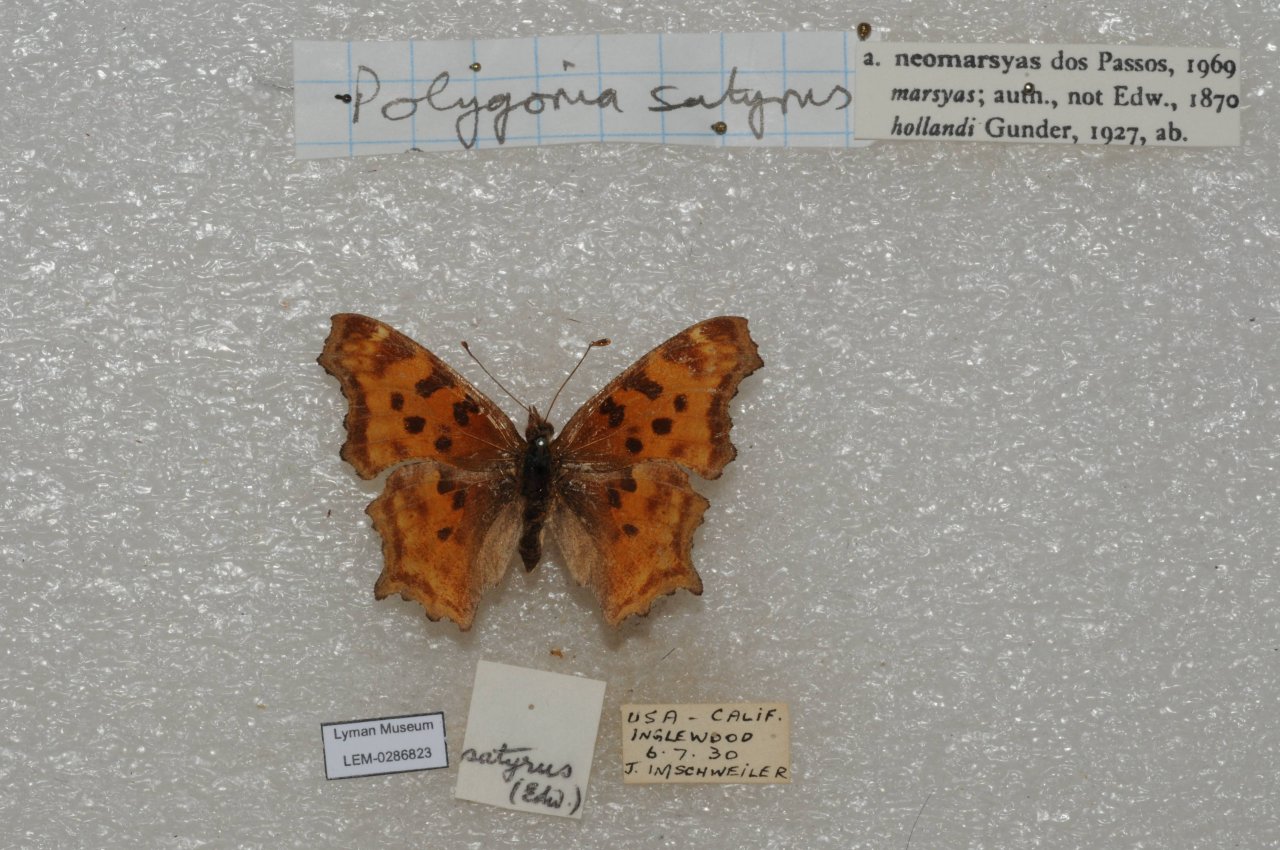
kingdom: Animalia
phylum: Arthropoda
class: Insecta
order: Lepidoptera
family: Nymphalidae
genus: Polygonia
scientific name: Polygonia satyrus
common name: Satyr Comma
